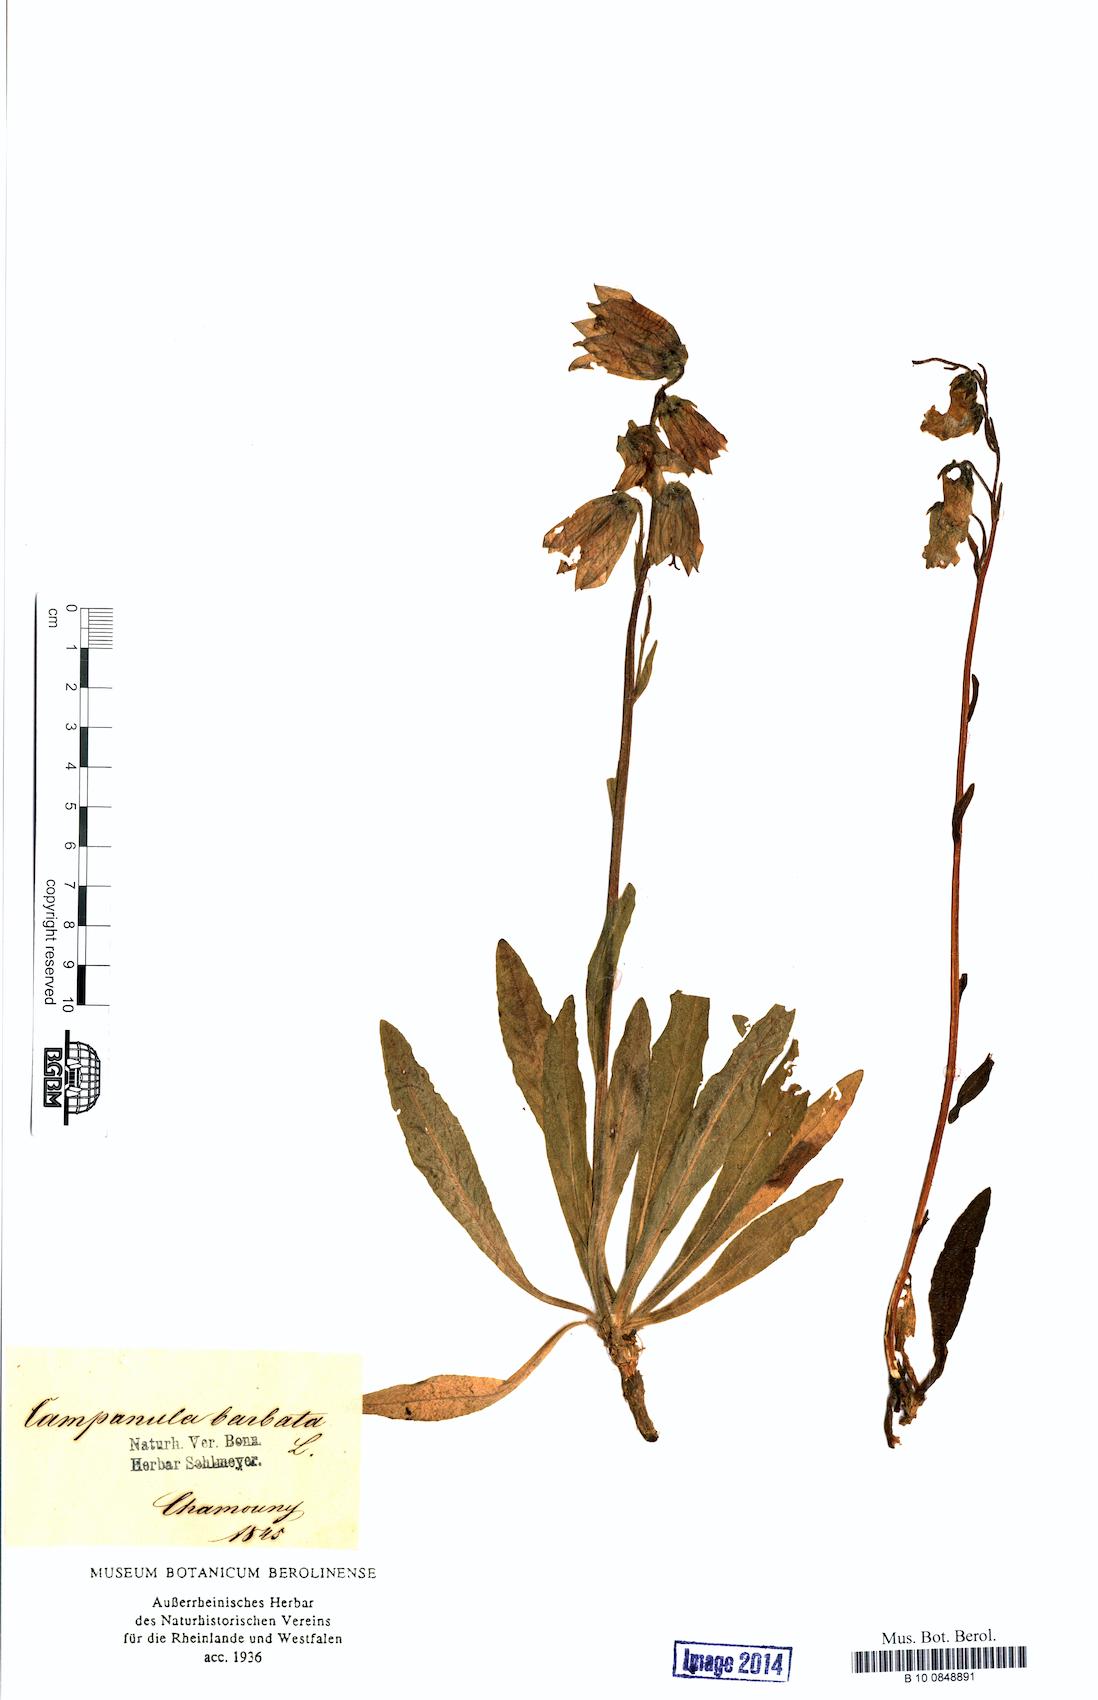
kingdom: Plantae
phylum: Tracheophyta
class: Magnoliopsida
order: Asterales
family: Campanulaceae
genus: Campanula
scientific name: Campanula barbata
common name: Bearded bellflower
